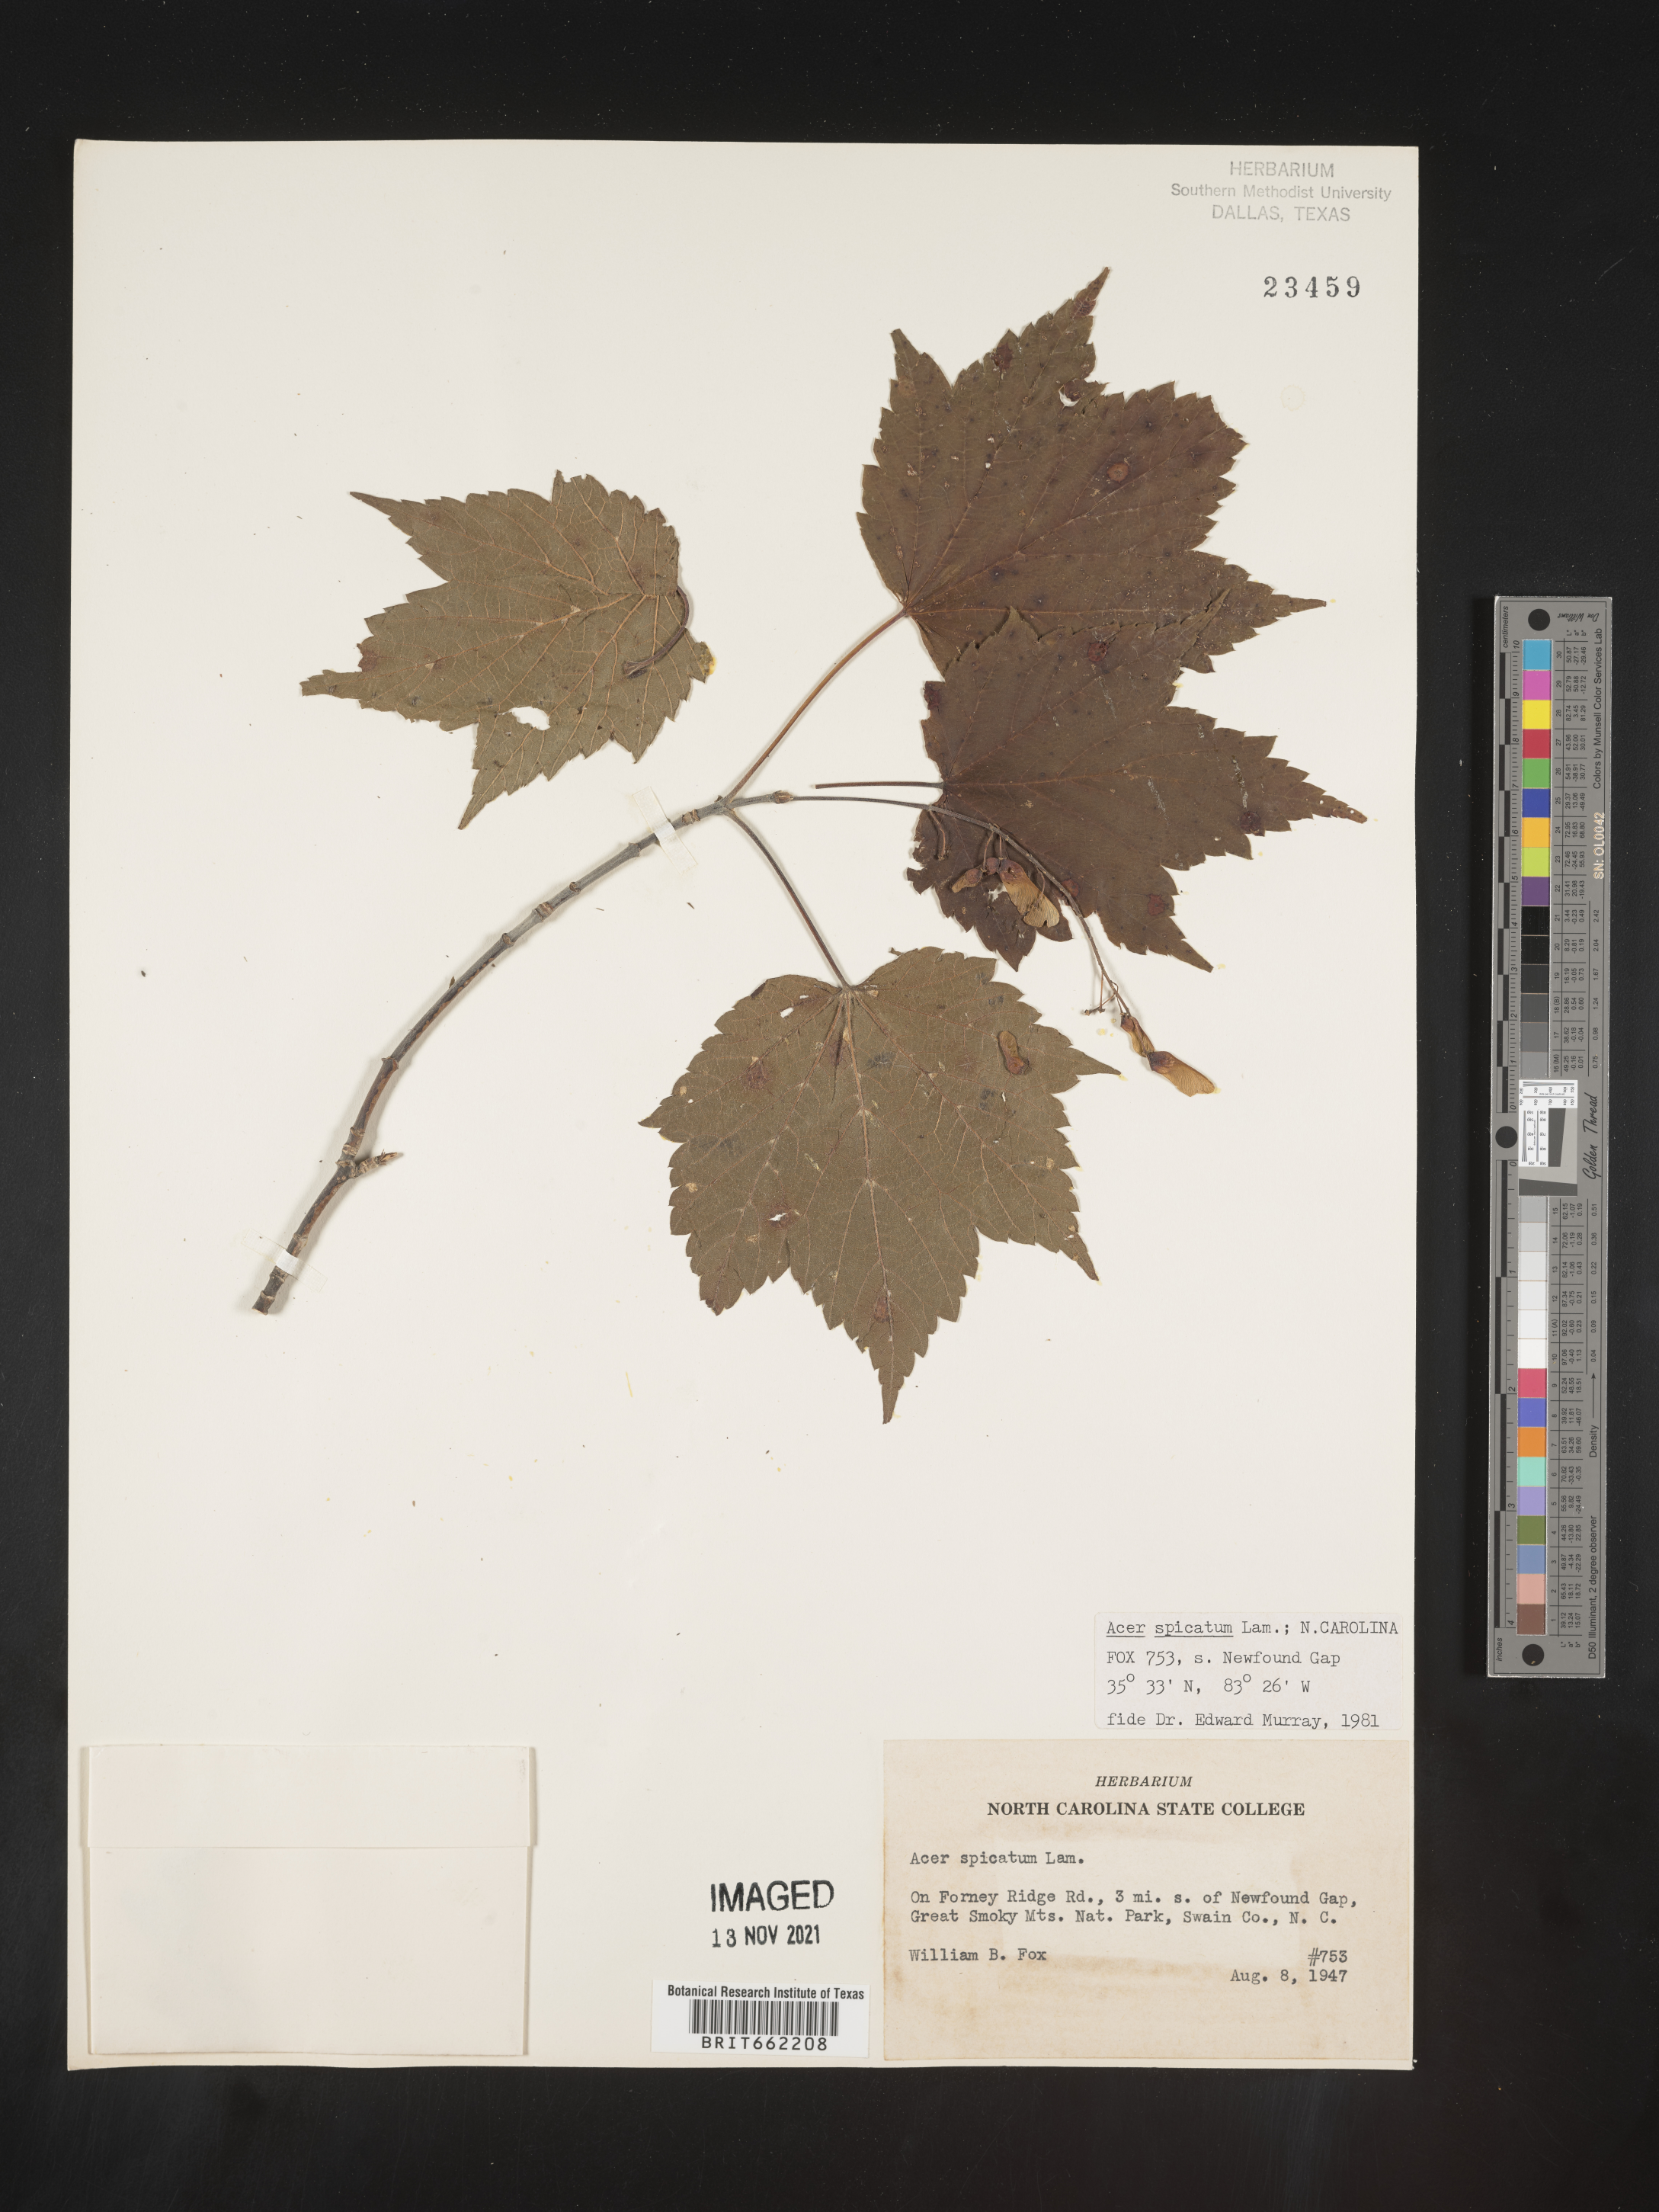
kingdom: Plantae
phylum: Tracheophyta
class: Magnoliopsida
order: Sapindales
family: Sapindaceae
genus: Acer
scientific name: Acer spicatum
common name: Mountain maple
